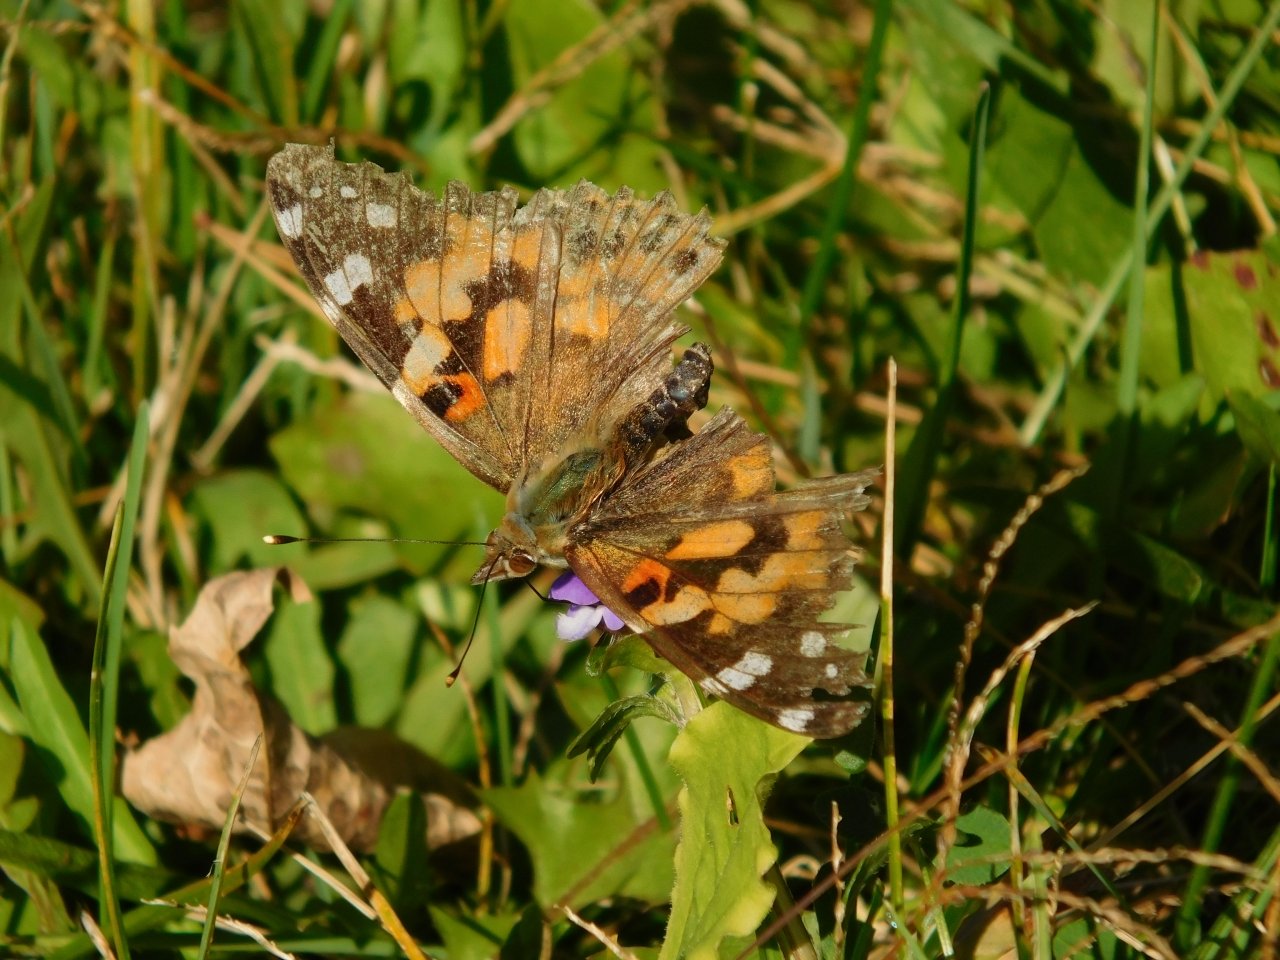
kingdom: Animalia
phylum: Arthropoda
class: Insecta
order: Lepidoptera
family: Nymphalidae
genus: Vanessa
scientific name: Vanessa cardui
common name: Painted Lady
